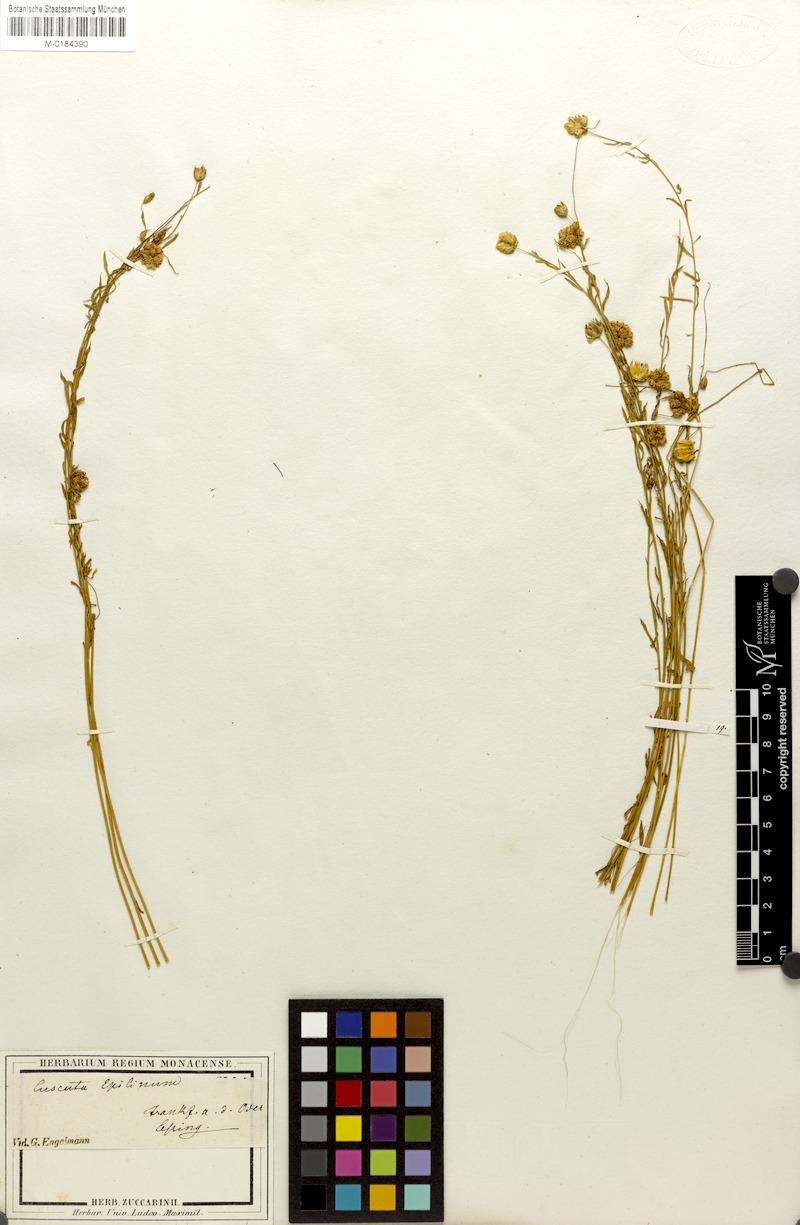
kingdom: Plantae
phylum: Tracheophyta
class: Magnoliopsida
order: Solanales
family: Convolvulaceae
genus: Cuscuta
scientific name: Cuscuta epilinum
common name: Flax dodder
